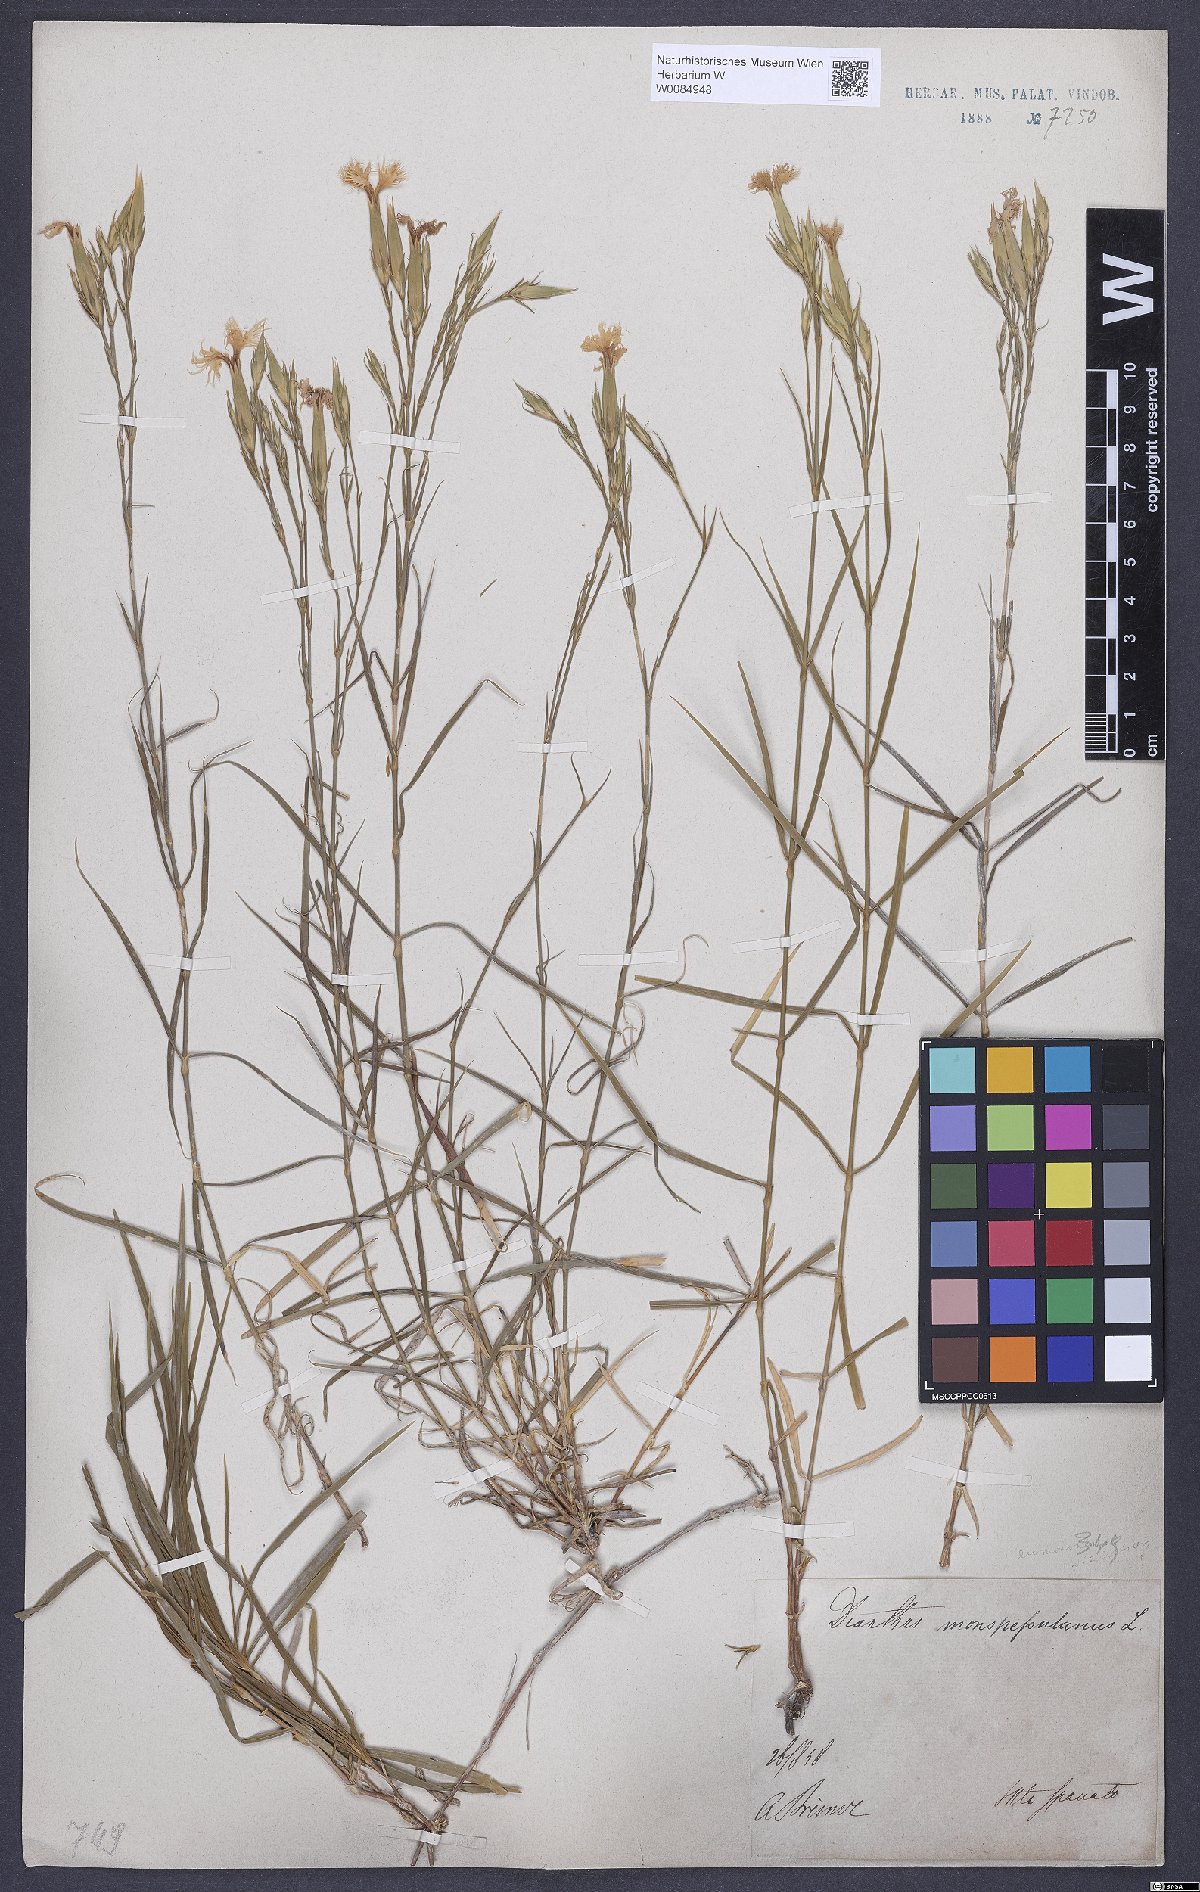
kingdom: Plantae
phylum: Tracheophyta
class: Magnoliopsida
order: Caryophyllales
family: Caryophyllaceae
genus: Dianthus
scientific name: Dianthus hyssopifolius
